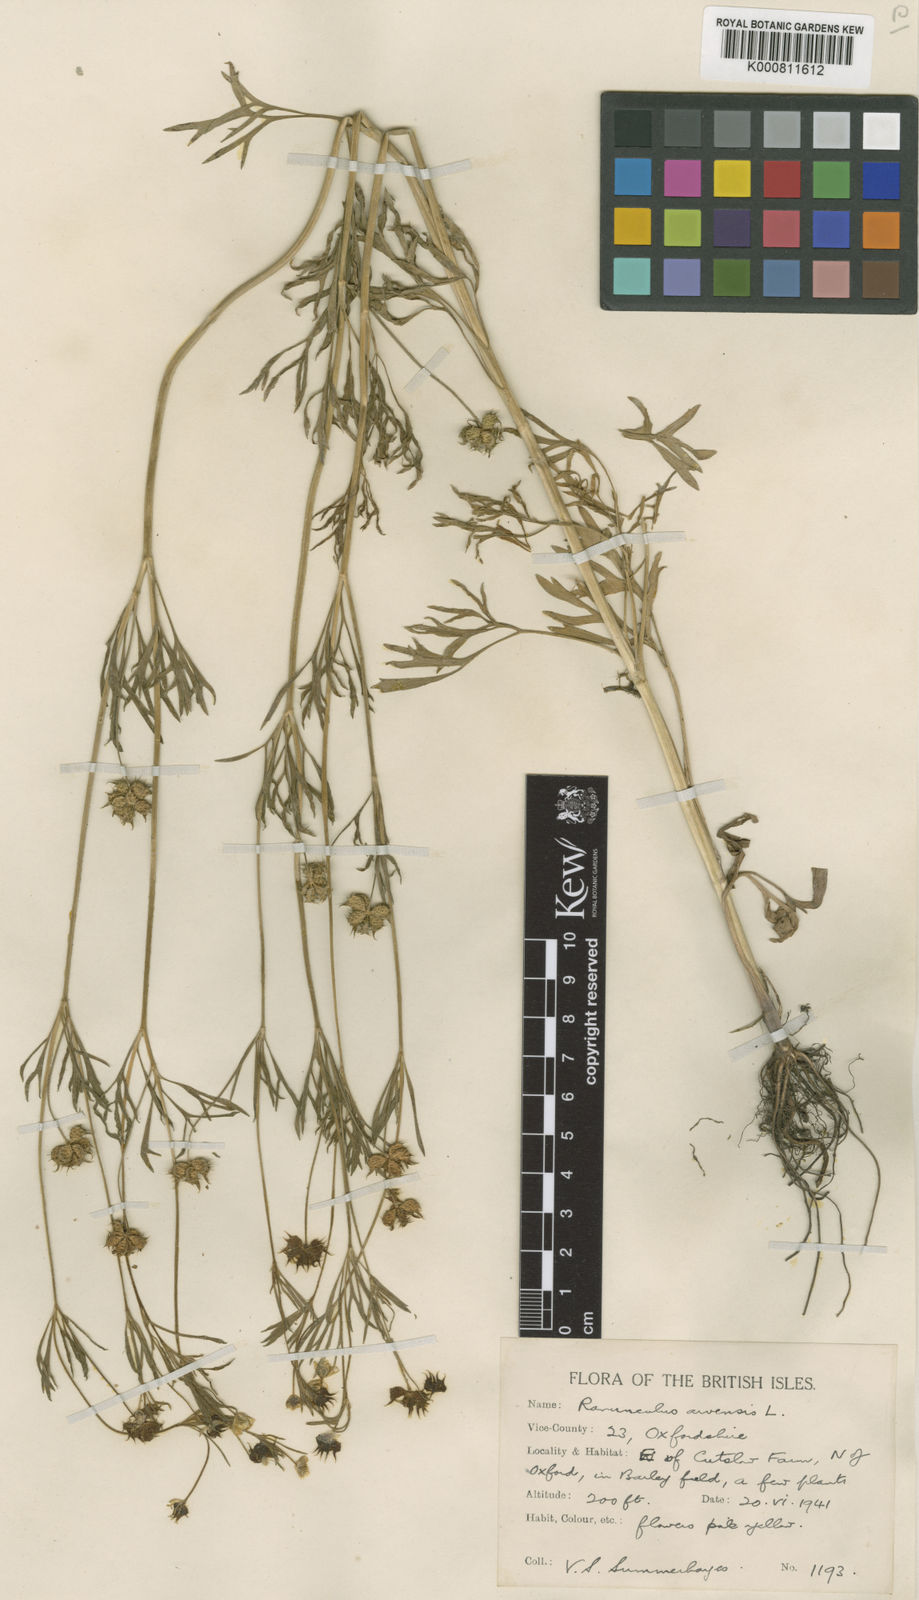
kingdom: Plantae
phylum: Tracheophyta
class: Magnoliopsida
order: Ranunculales
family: Ranunculaceae
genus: Ranunculus
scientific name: Ranunculus arvensis
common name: Corn buttercup
